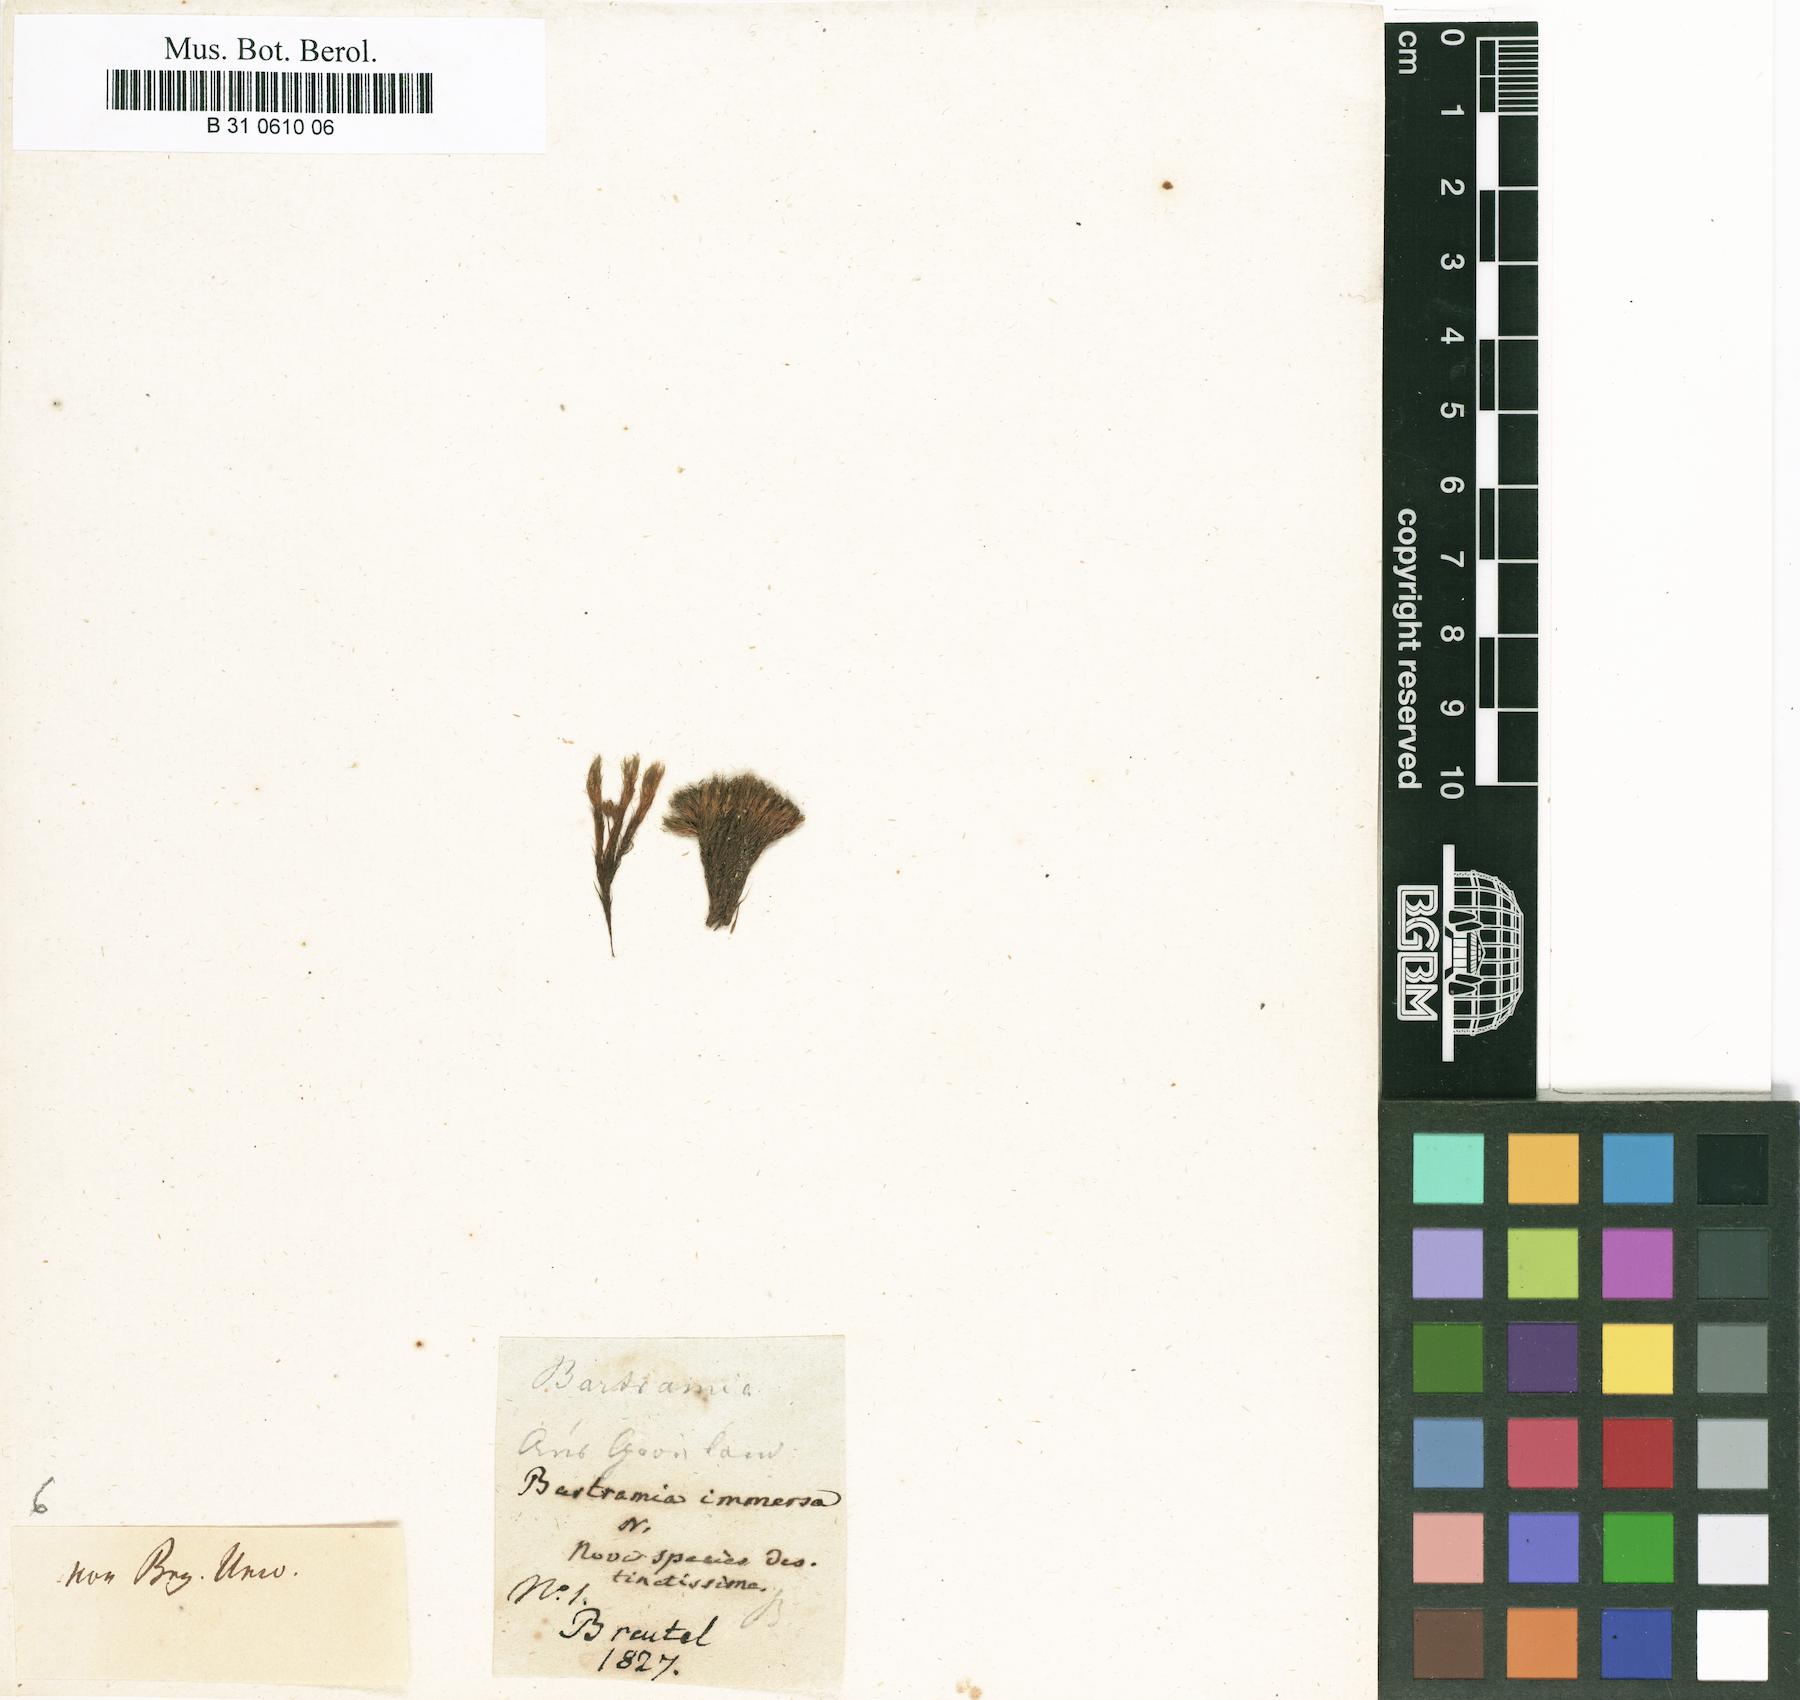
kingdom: Plantae
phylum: Bryophyta
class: Bryopsida
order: Bartramiales
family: Bartramiaceae
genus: Plagiopus
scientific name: Plagiopus oederianus
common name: Oeder's apple moss
